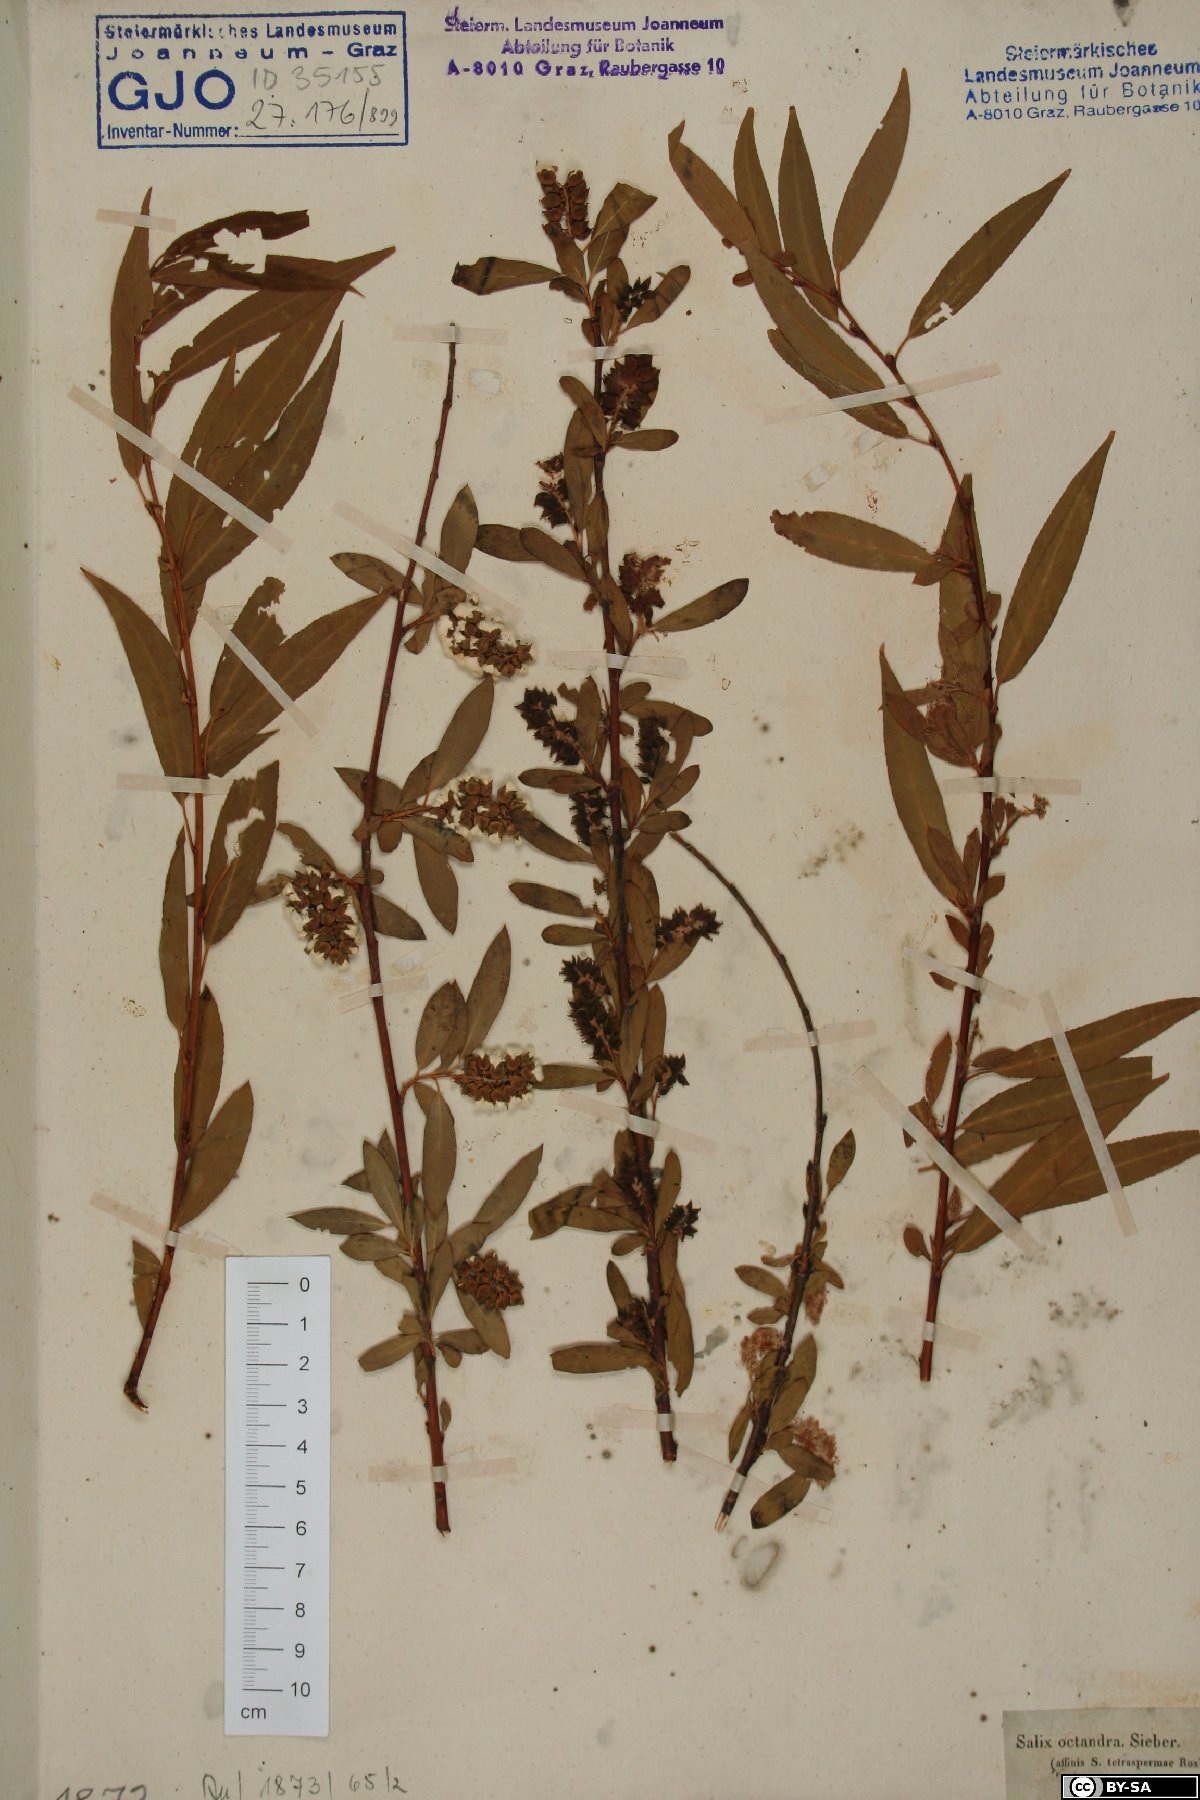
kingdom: Plantae
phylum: Tracheophyta
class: Magnoliopsida
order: Malpighiales
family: Salicaceae
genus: Salix
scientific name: Salix mucronata
